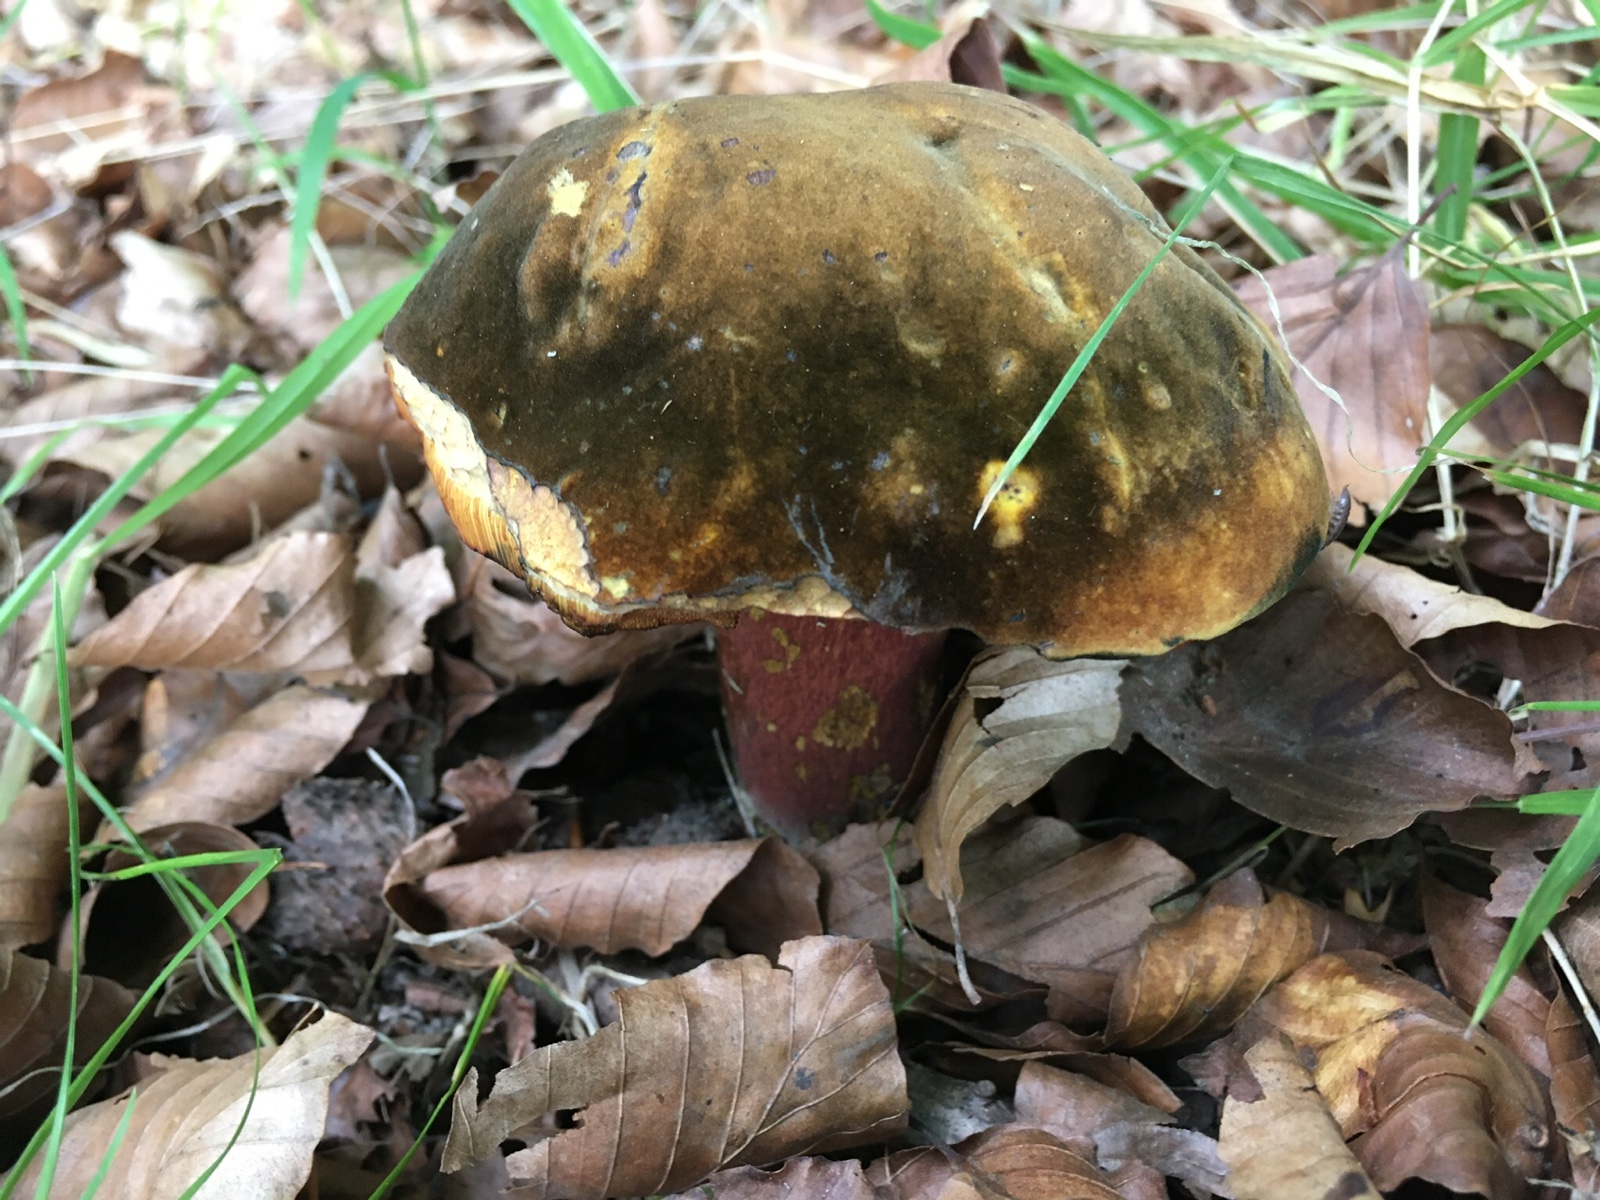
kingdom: Fungi
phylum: Basidiomycota
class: Agaricomycetes
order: Boletales
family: Boletaceae
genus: Neoboletus
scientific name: Neoboletus erythropus
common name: punktstokket indigorørhat
